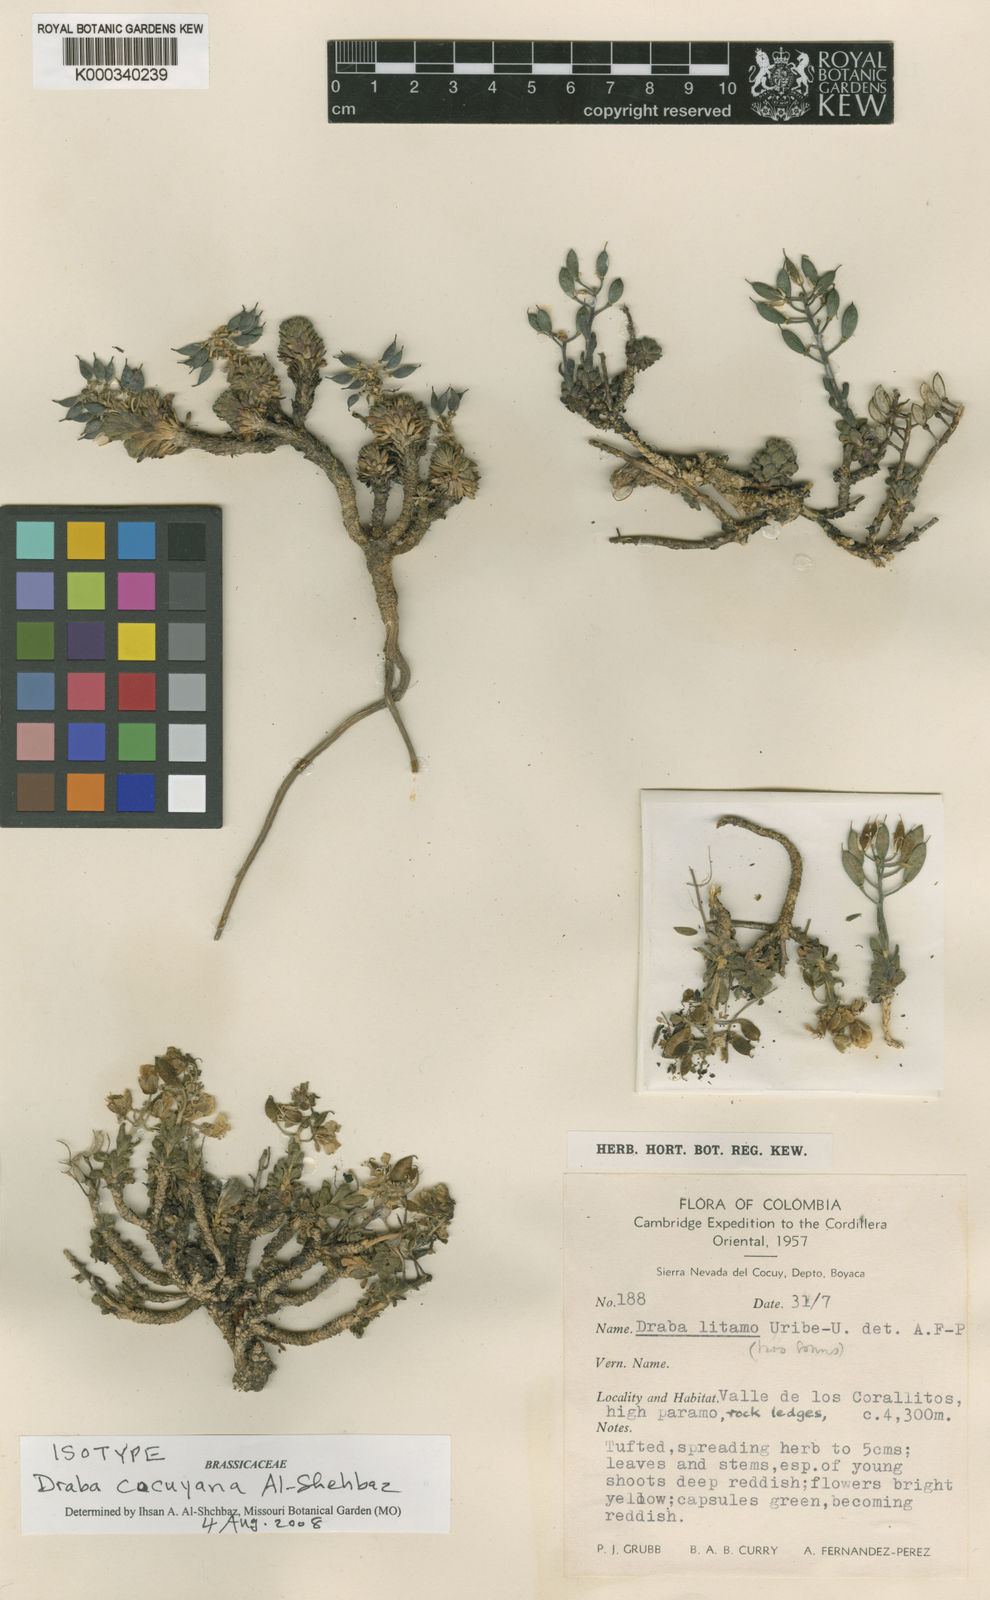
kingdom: Plantae
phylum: Tracheophyta
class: Magnoliopsida
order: Brassicales
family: Brassicaceae
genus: Draba
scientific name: Draba cocuyana
